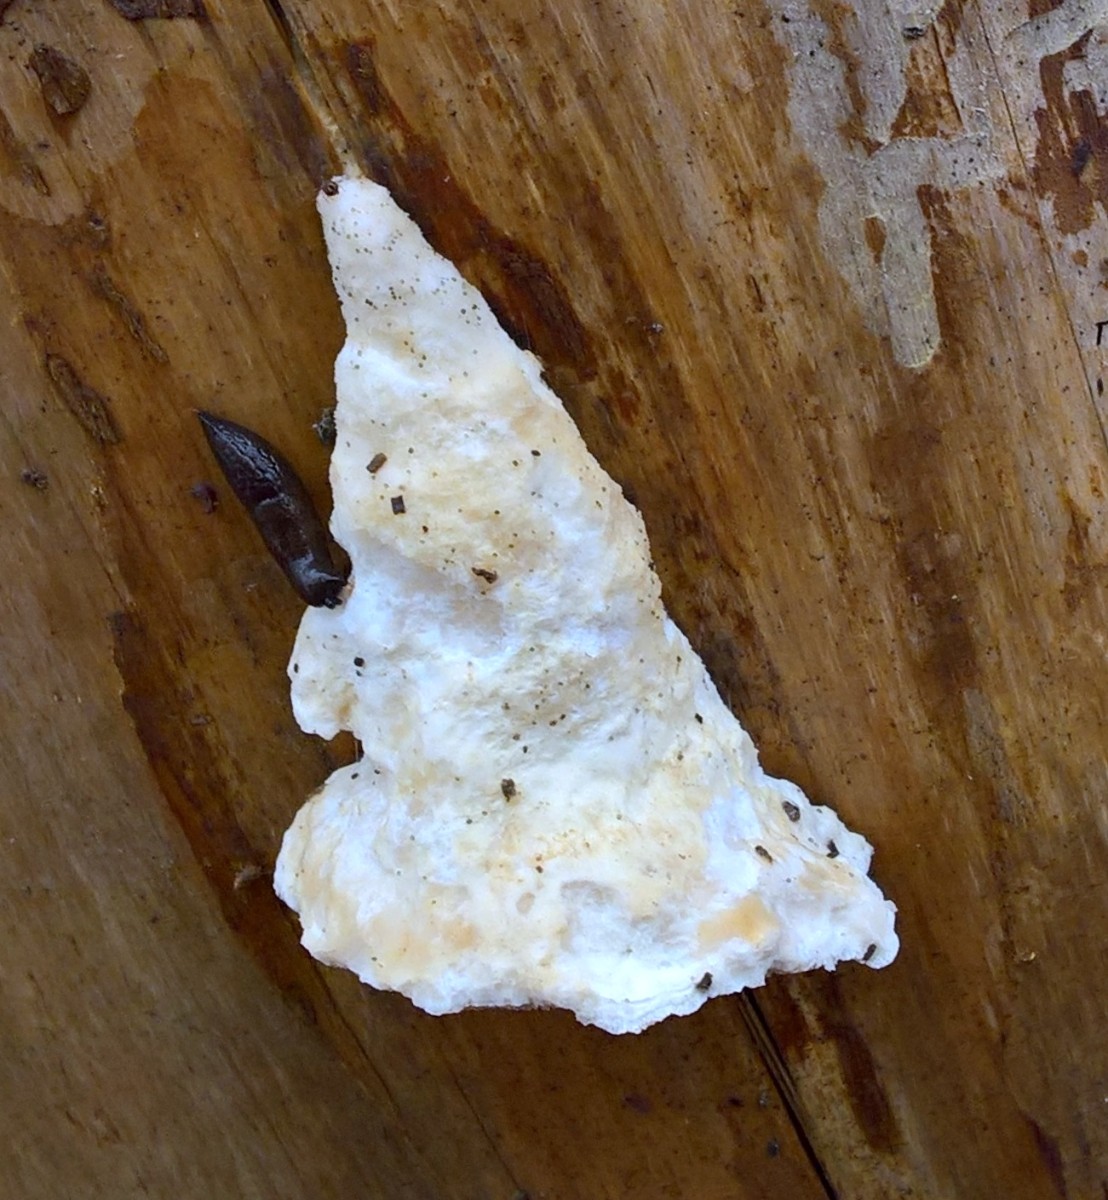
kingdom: Fungi
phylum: Basidiomycota
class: Agaricomycetes
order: Polyporales
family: Fomitopsidaceae
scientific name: Fomitopsidaceae
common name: hovporesvampfamilien
